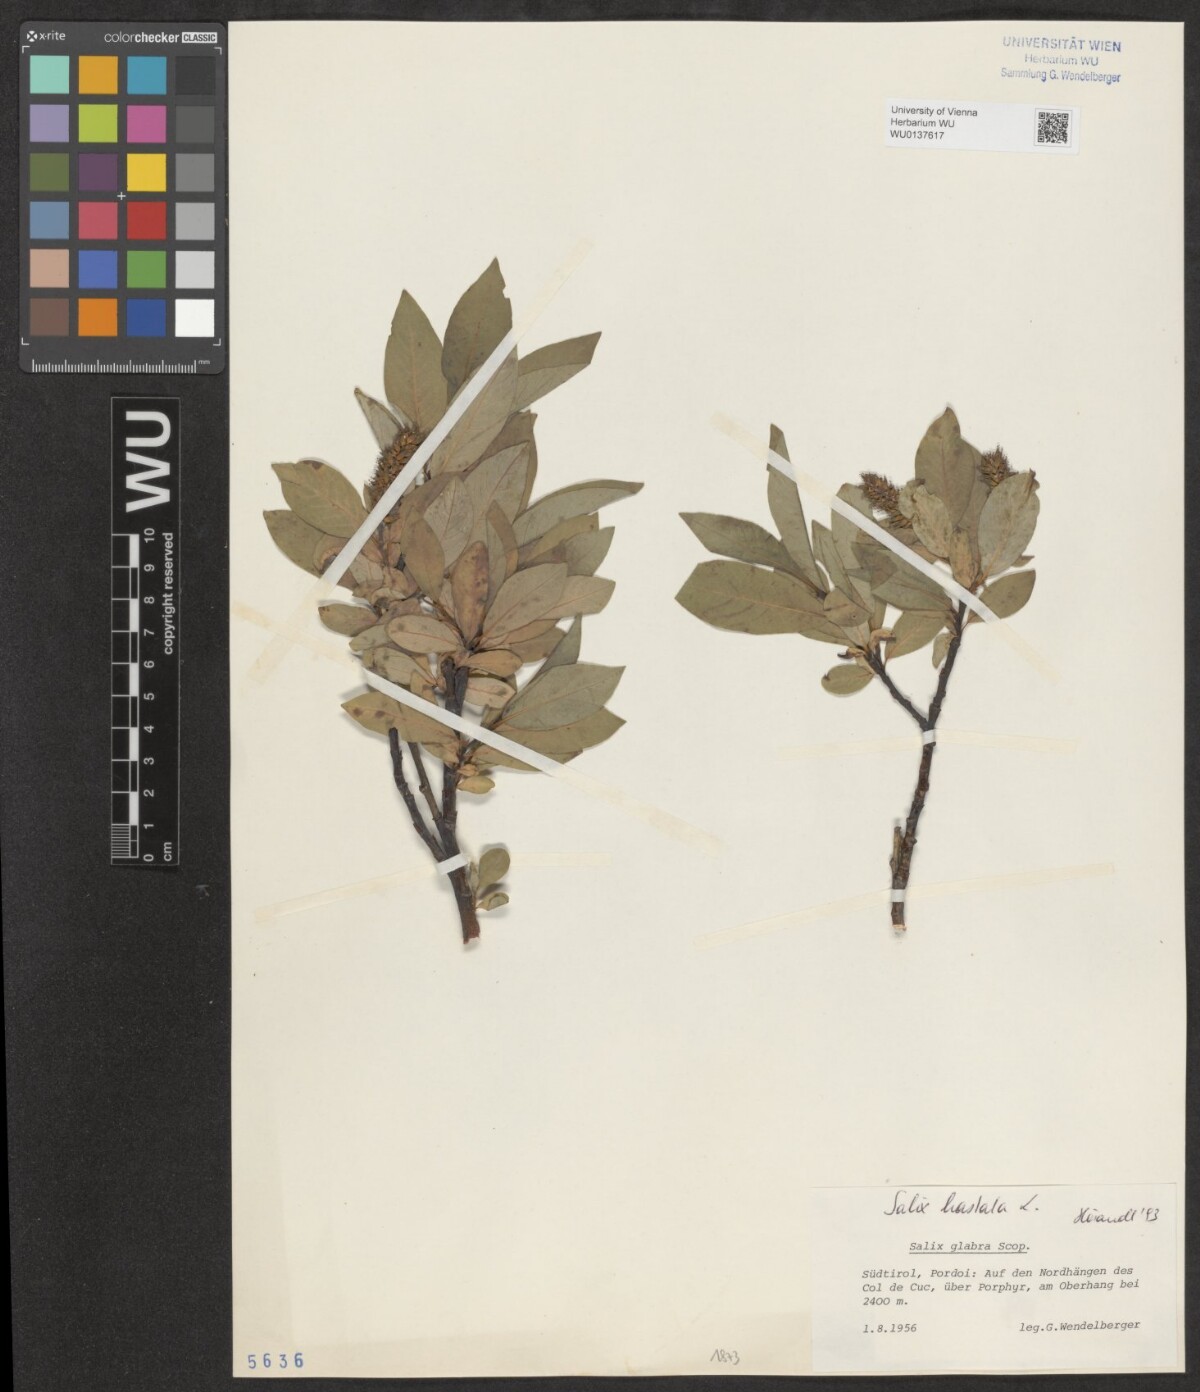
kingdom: Plantae
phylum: Tracheophyta
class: Magnoliopsida
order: Malpighiales
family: Salicaceae
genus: Salix
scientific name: Salix hastata
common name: Halberd willow
